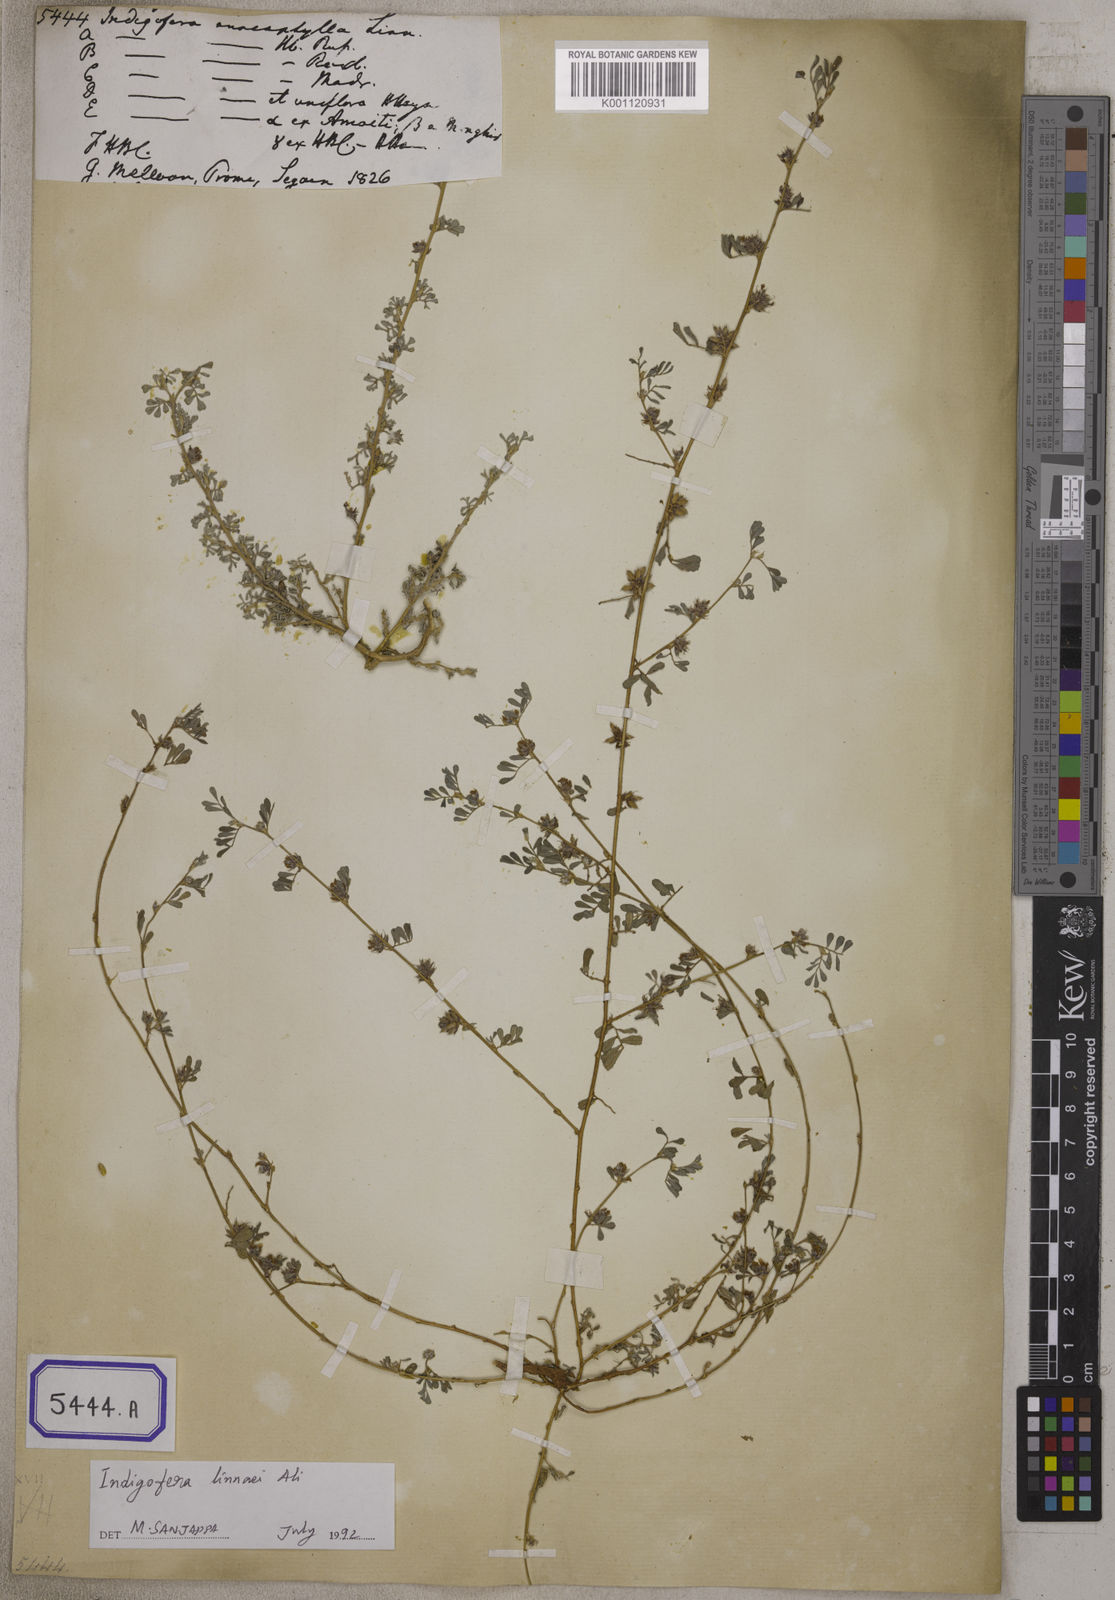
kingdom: Plantae
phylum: Tracheophyta
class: Magnoliopsida
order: Fabales
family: Fabaceae
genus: Indigofera
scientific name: Indigofera linnaei
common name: Nine-leaf indigo
